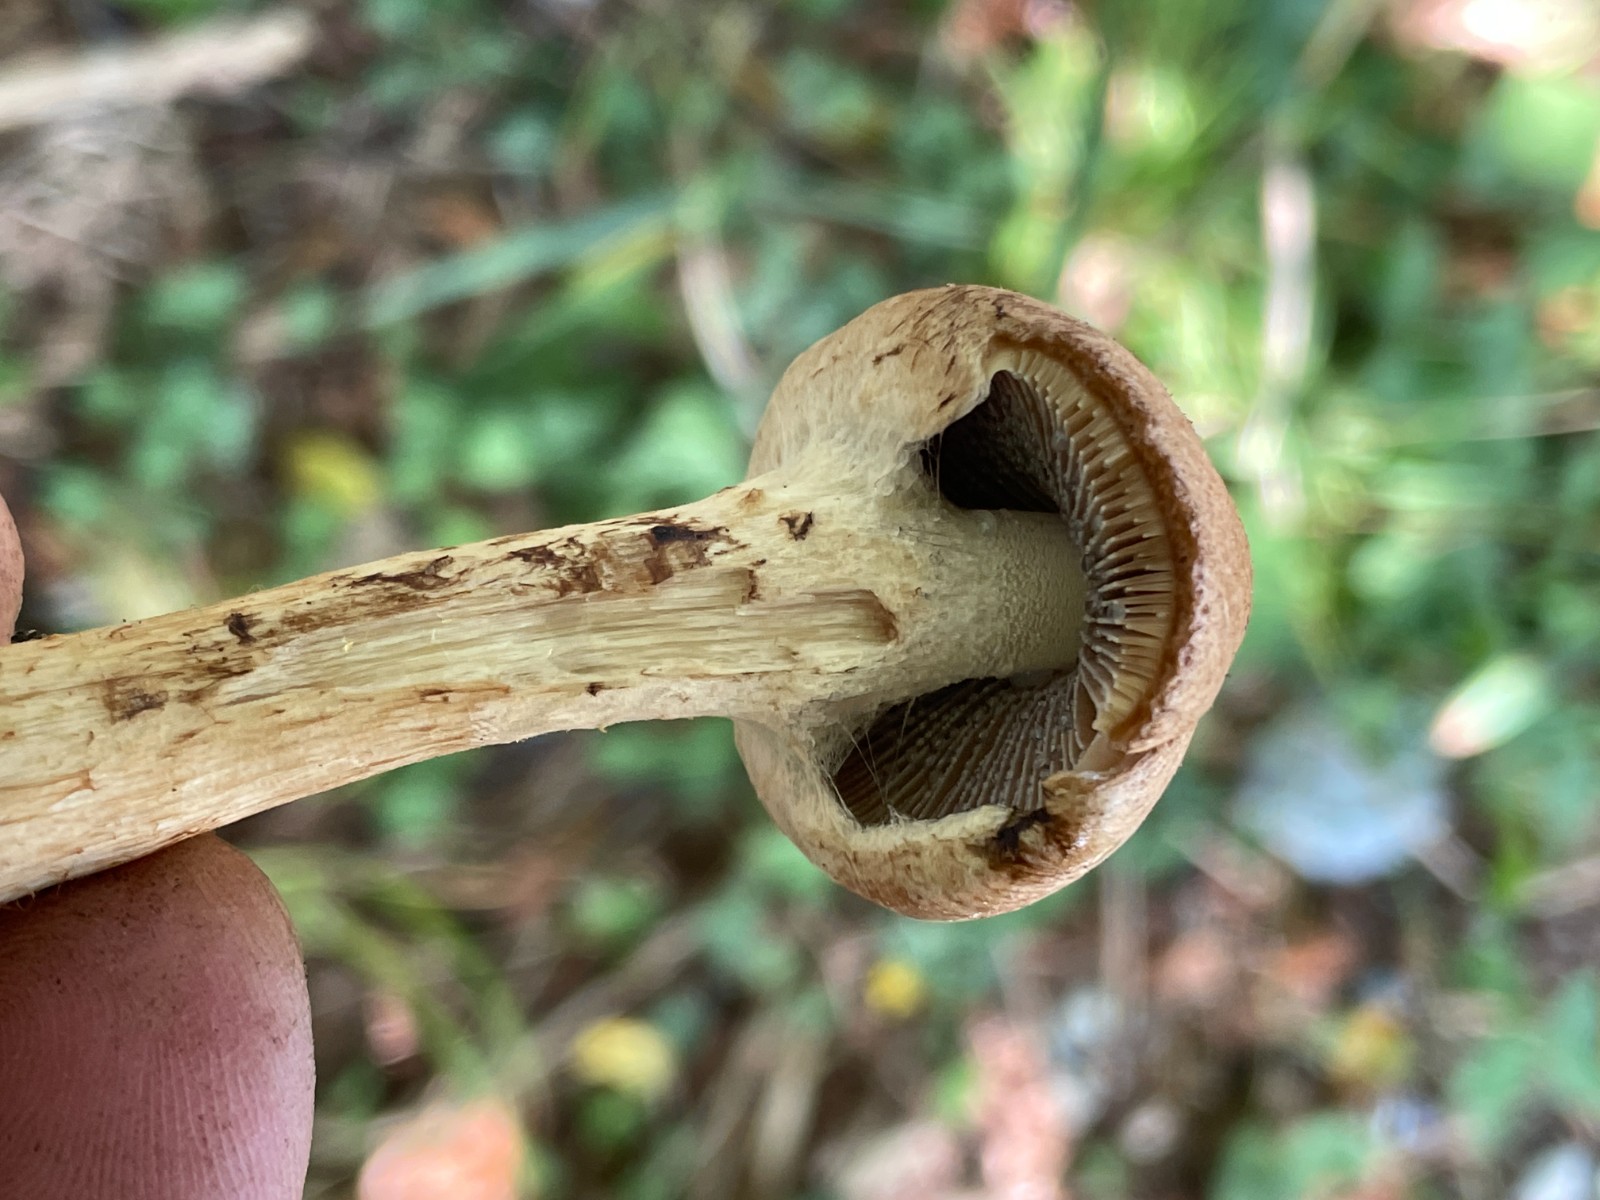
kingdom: Fungi
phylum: Basidiomycota
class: Agaricomycetes
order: Agaricales
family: Psathyrellaceae
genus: Lacrymaria
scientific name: Lacrymaria lacrymabunda
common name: grædende mørkhat
